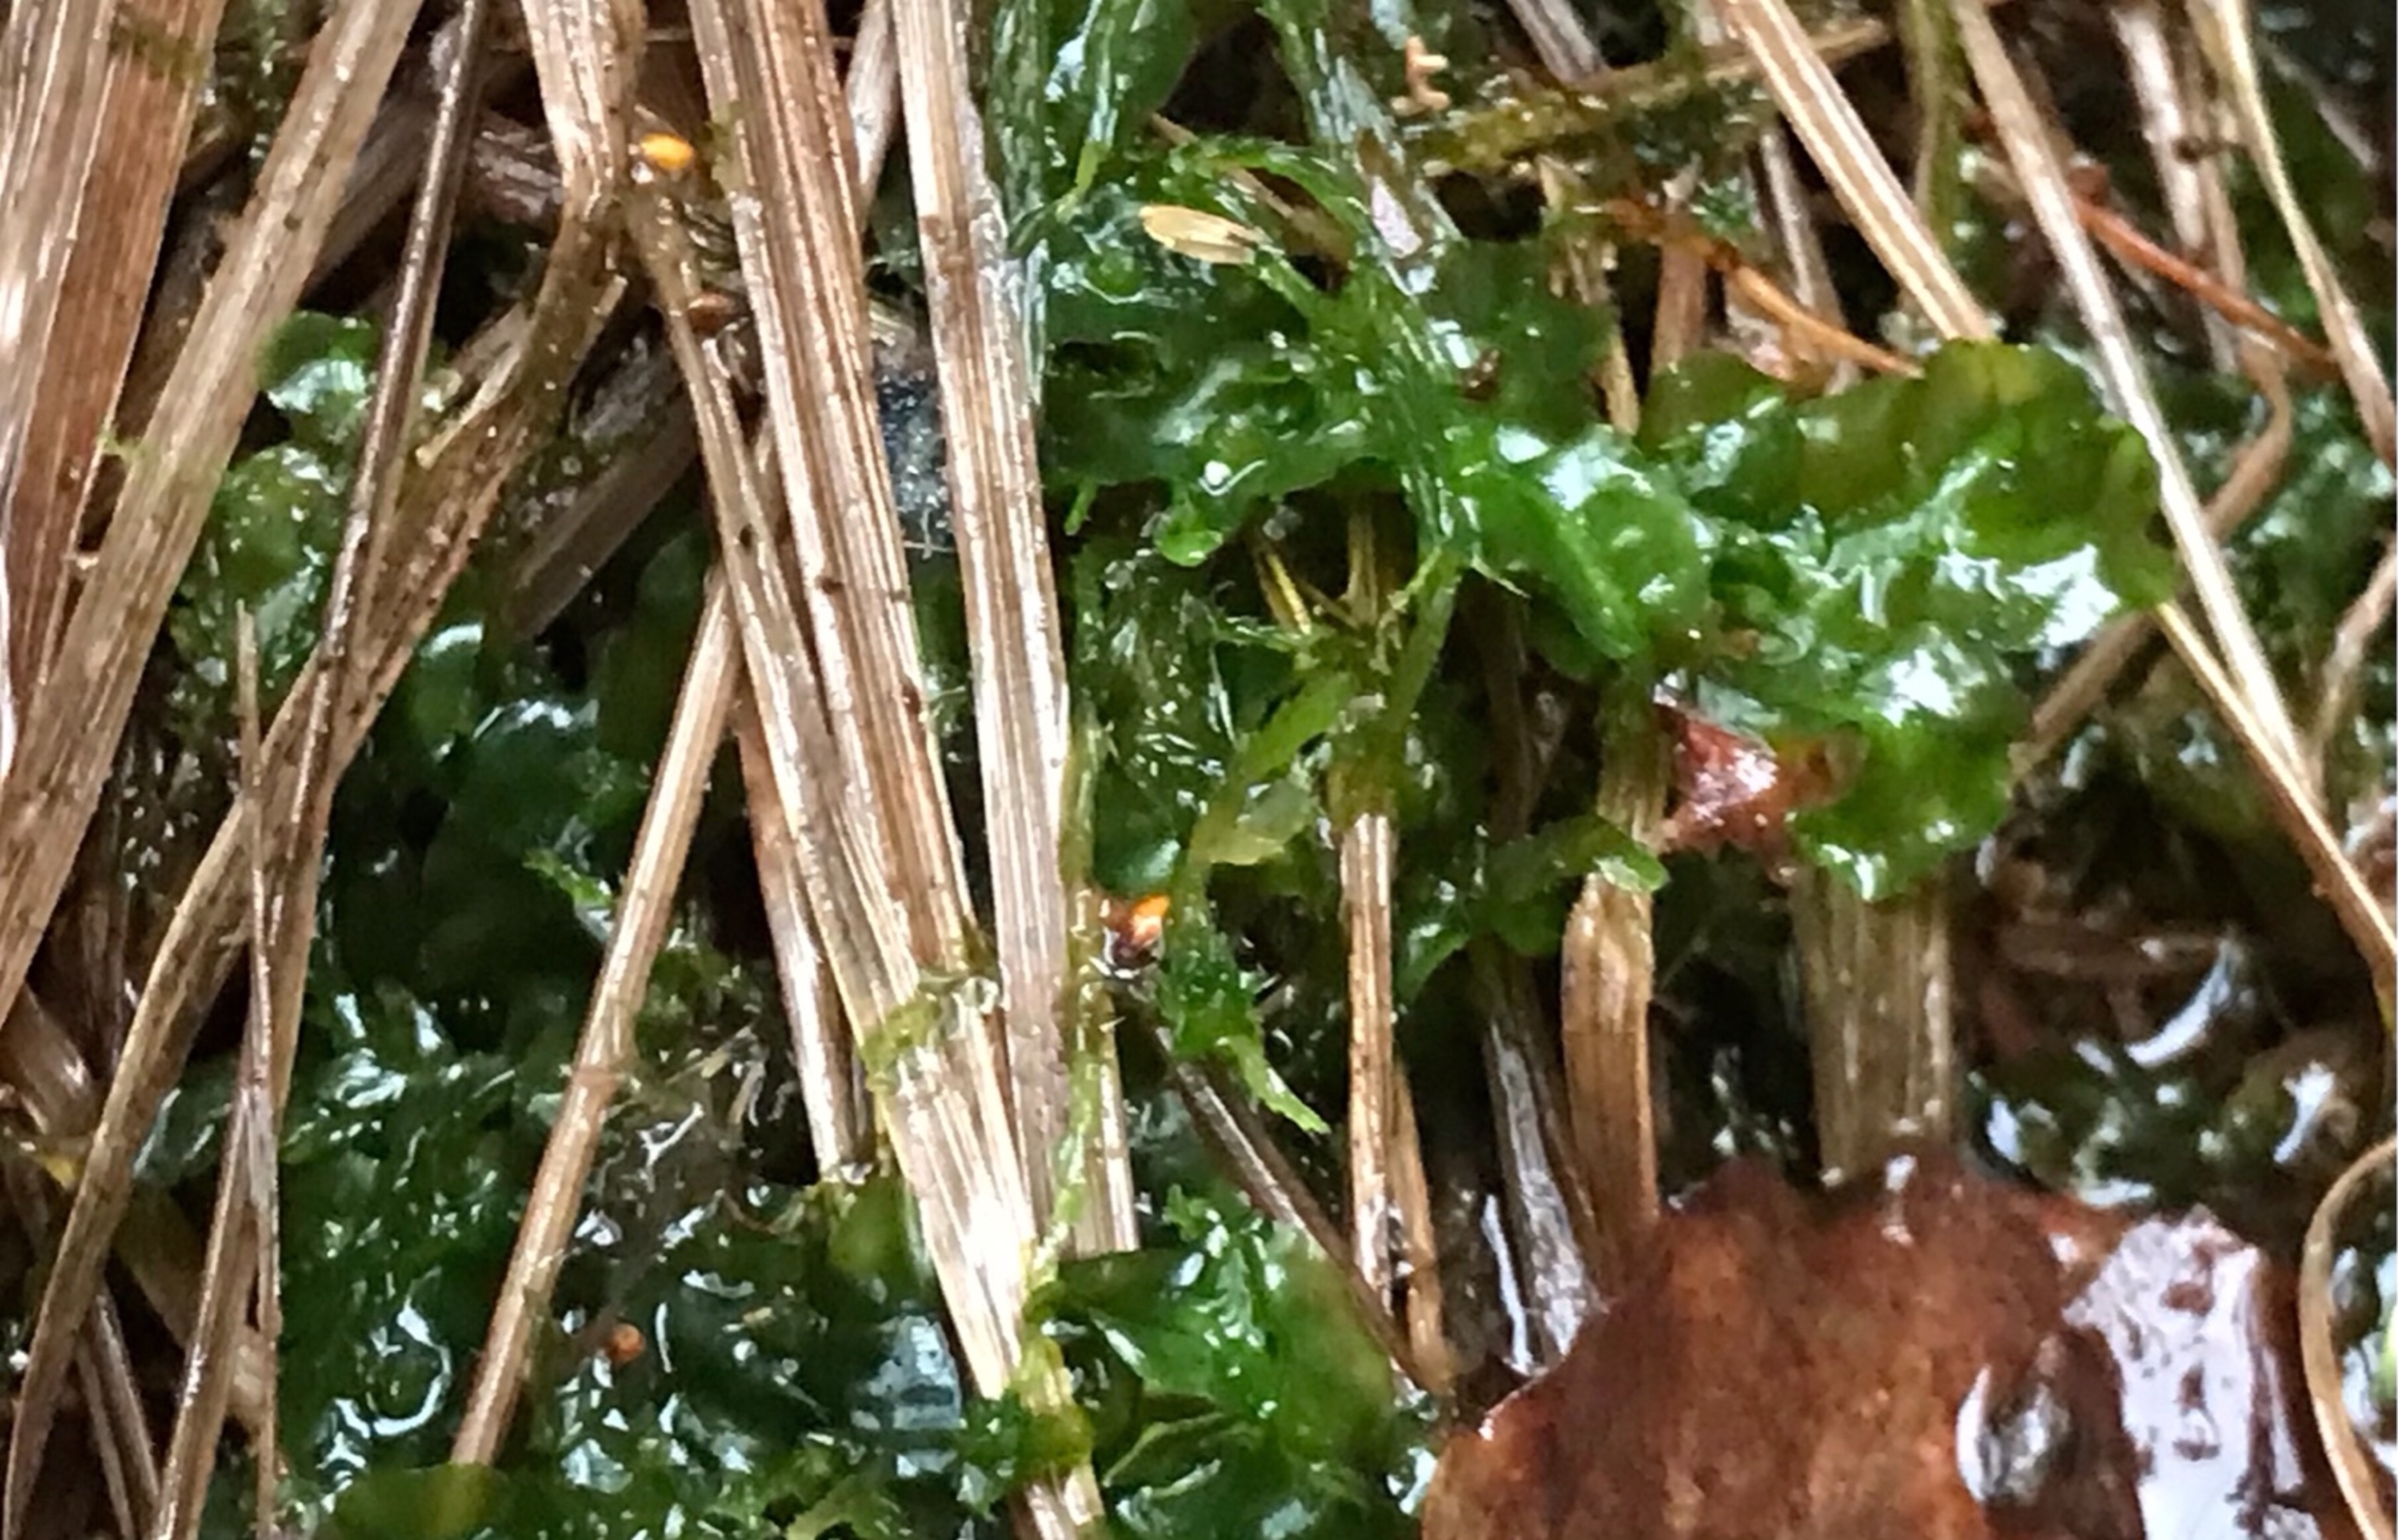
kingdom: Plantae
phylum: Marchantiophyta
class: Jungermanniopsida
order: Pallaviciniales
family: Pallaviciniaceae
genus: Pallavicinia
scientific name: Pallavicinia lyellii
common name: Almindelig strengløv
